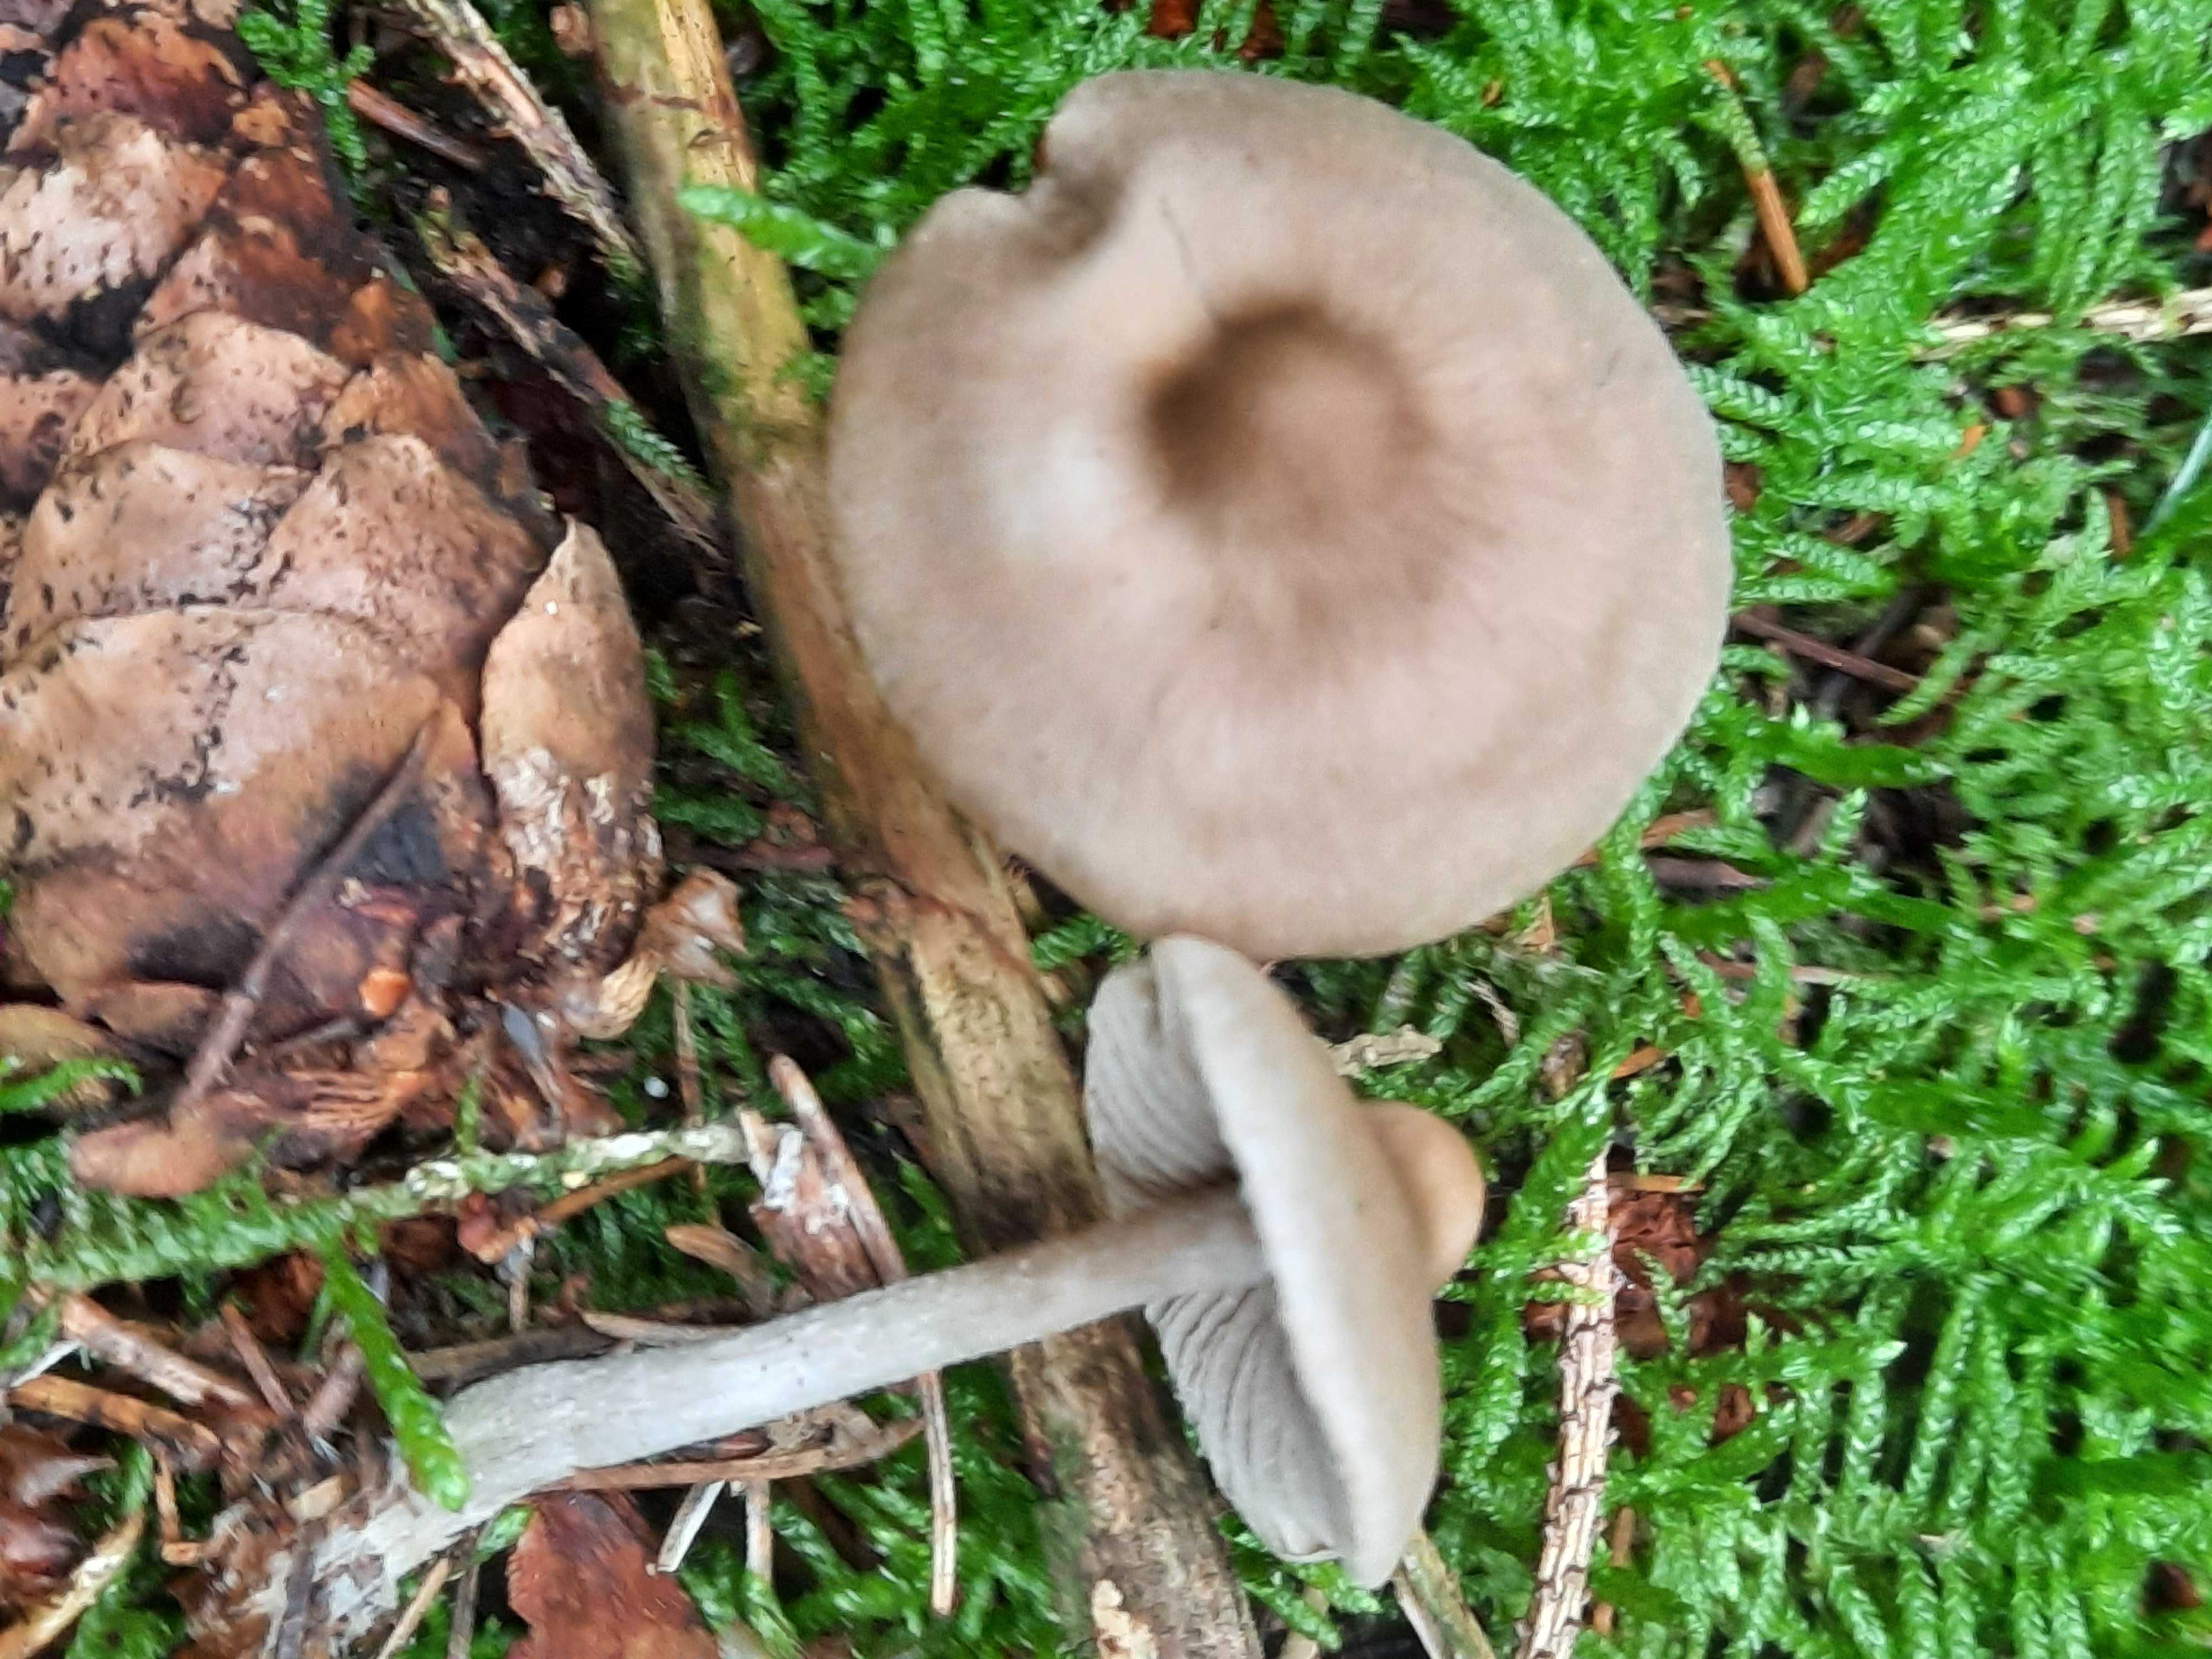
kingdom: Fungi
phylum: Basidiomycota
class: Agaricomycetes
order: Agaricales
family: Lyophyllaceae
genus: Tephrocybe
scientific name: Tephrocybe
